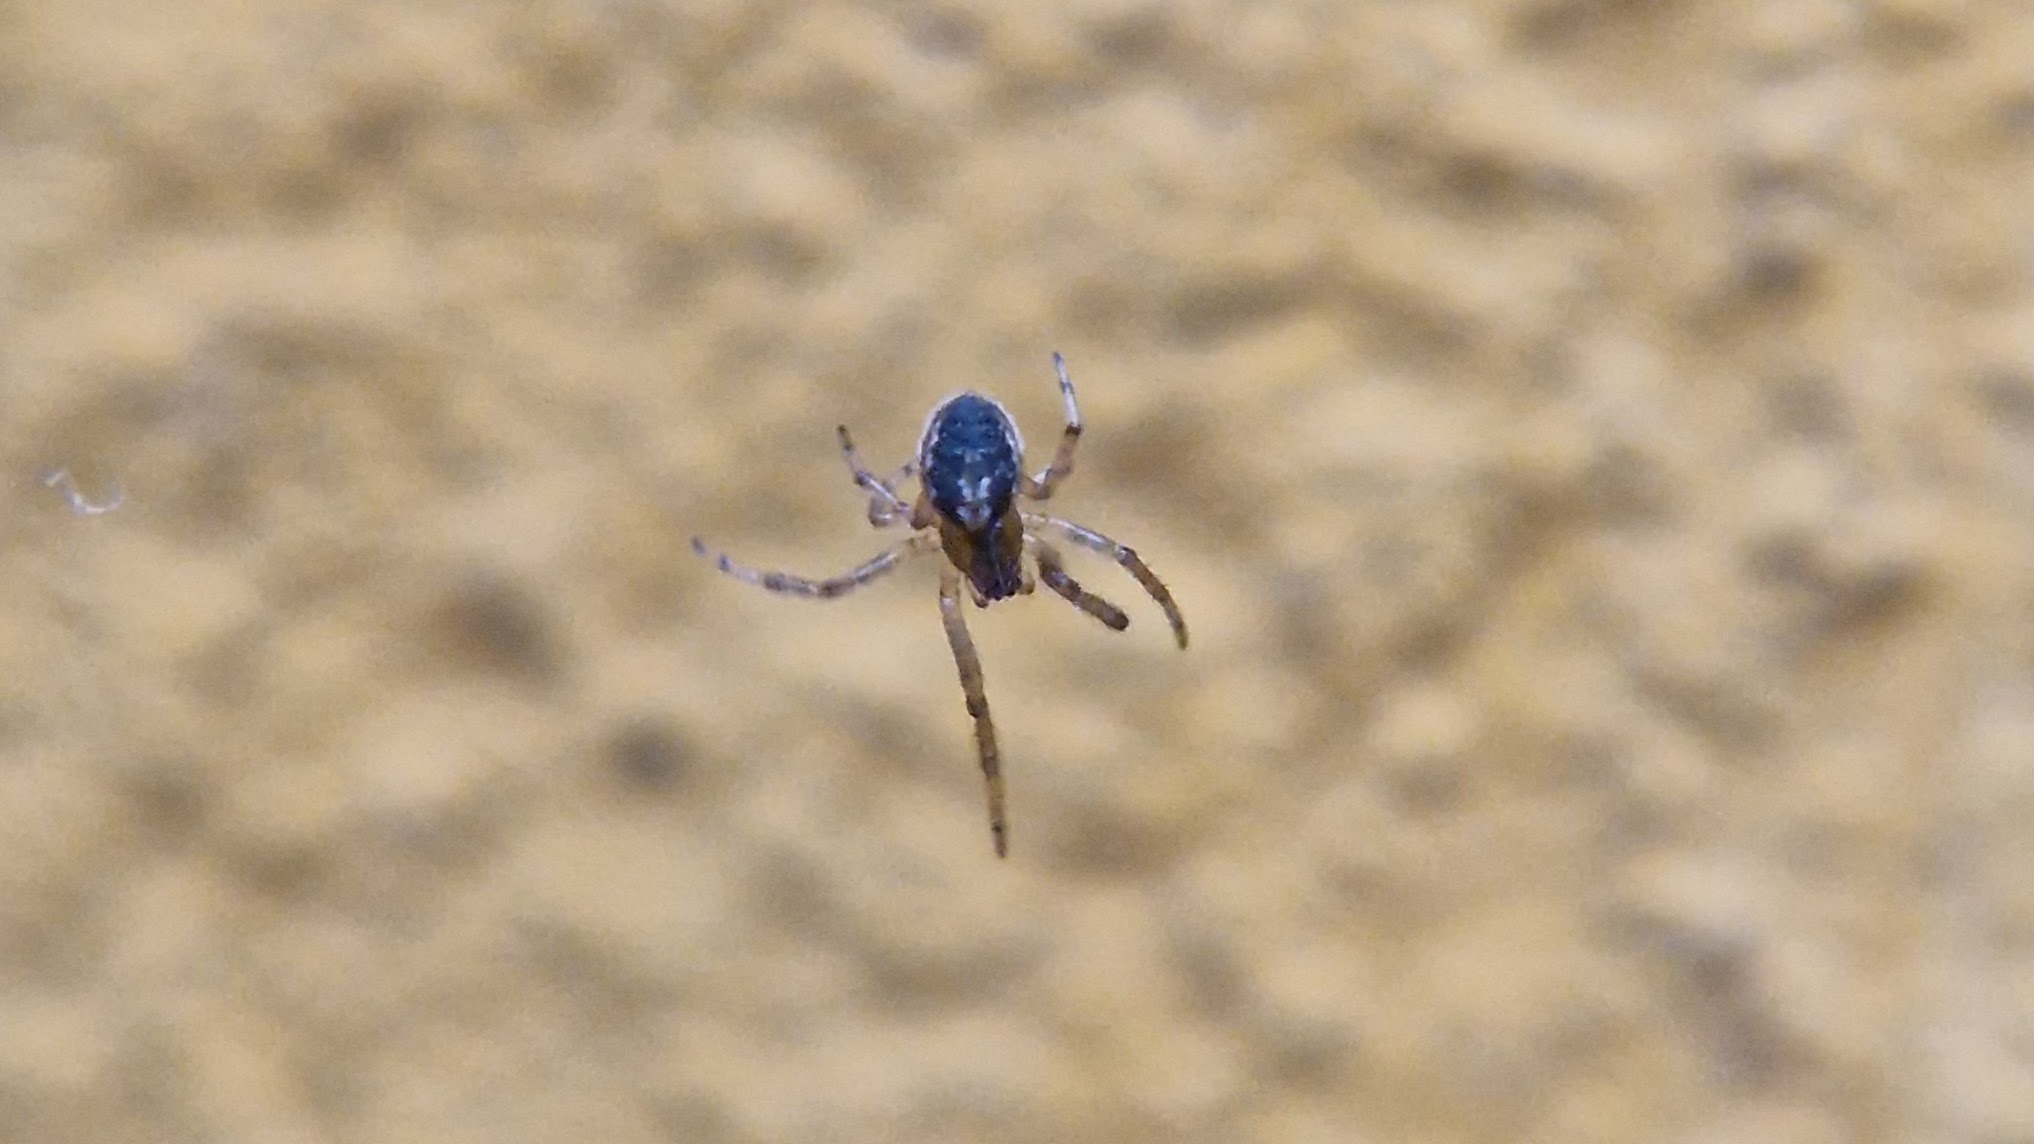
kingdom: Animalia
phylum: Arthropoda
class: Arachnida
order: Araneae
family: Araneidae
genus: Zygiella
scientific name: Zygiella x-notata
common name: Grå sektoredderkop
